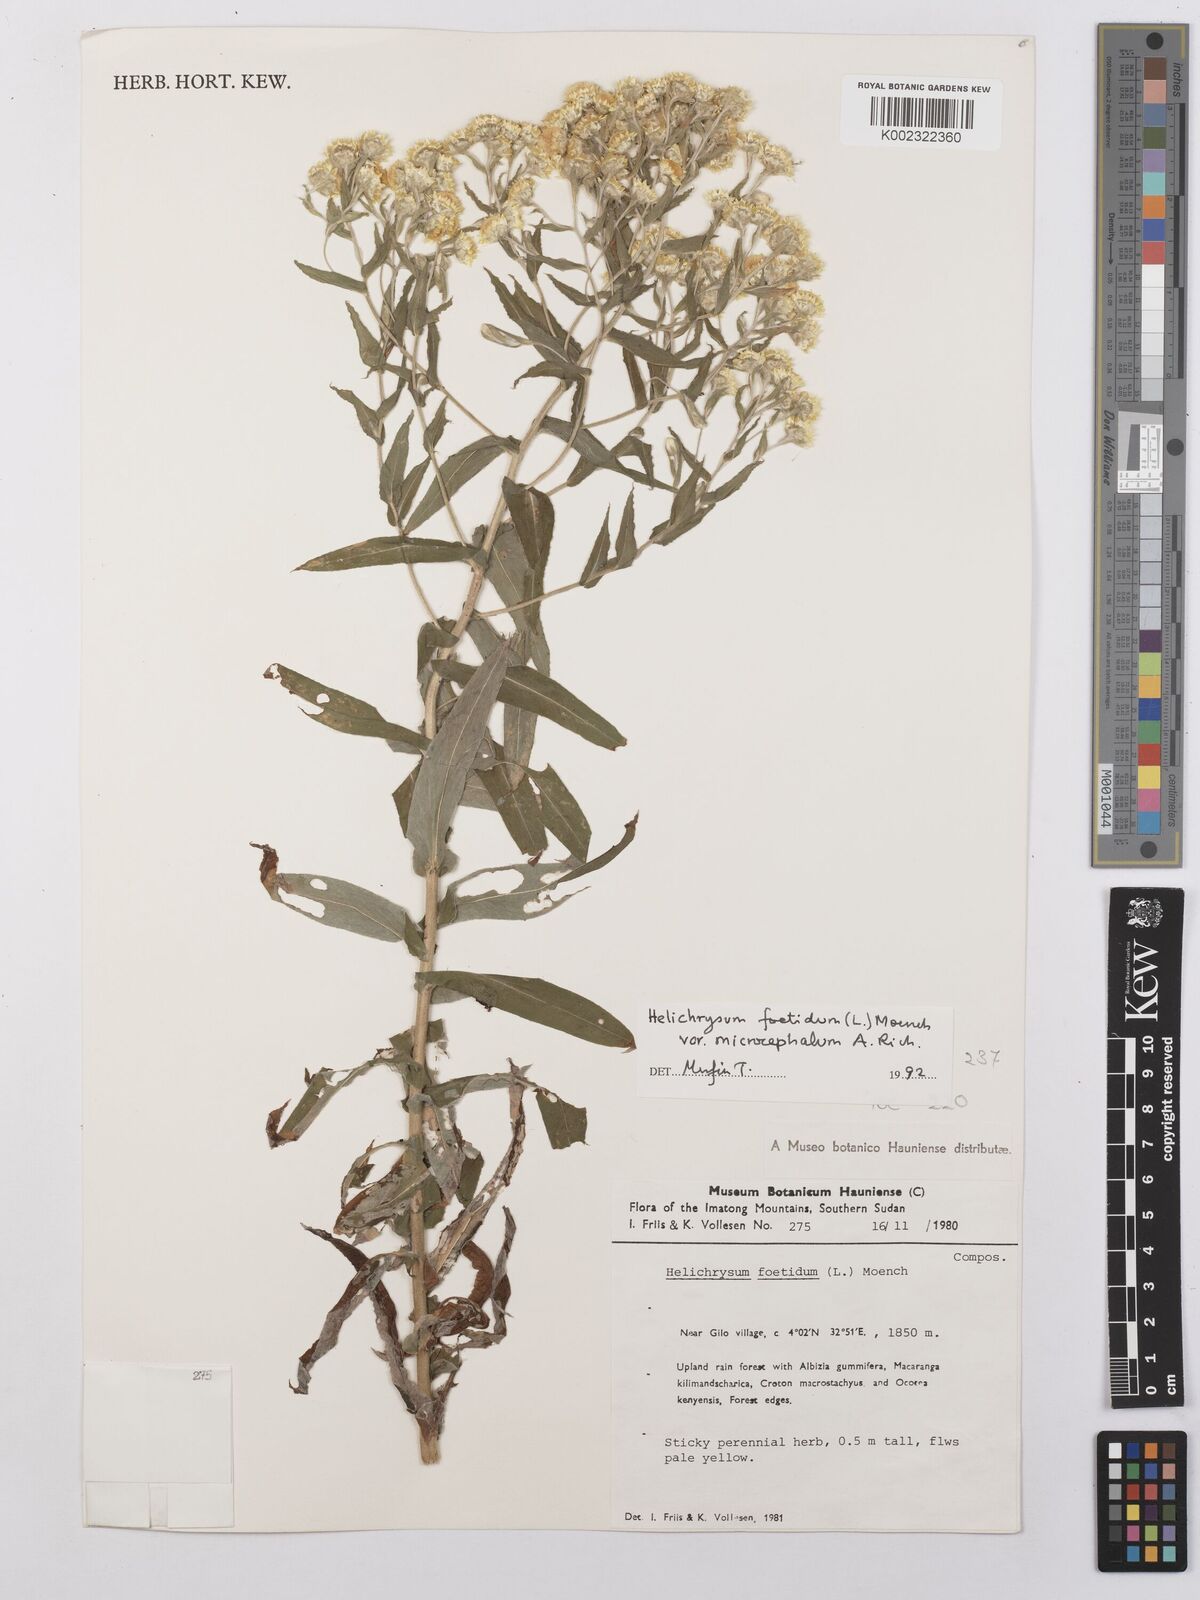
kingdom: Plantae
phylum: Tracheophyta
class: Magnoliopsida
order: Asterales
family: Asteraceae
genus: Helichrysum
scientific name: Helichrysum foetidum
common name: Stinking everlasting
